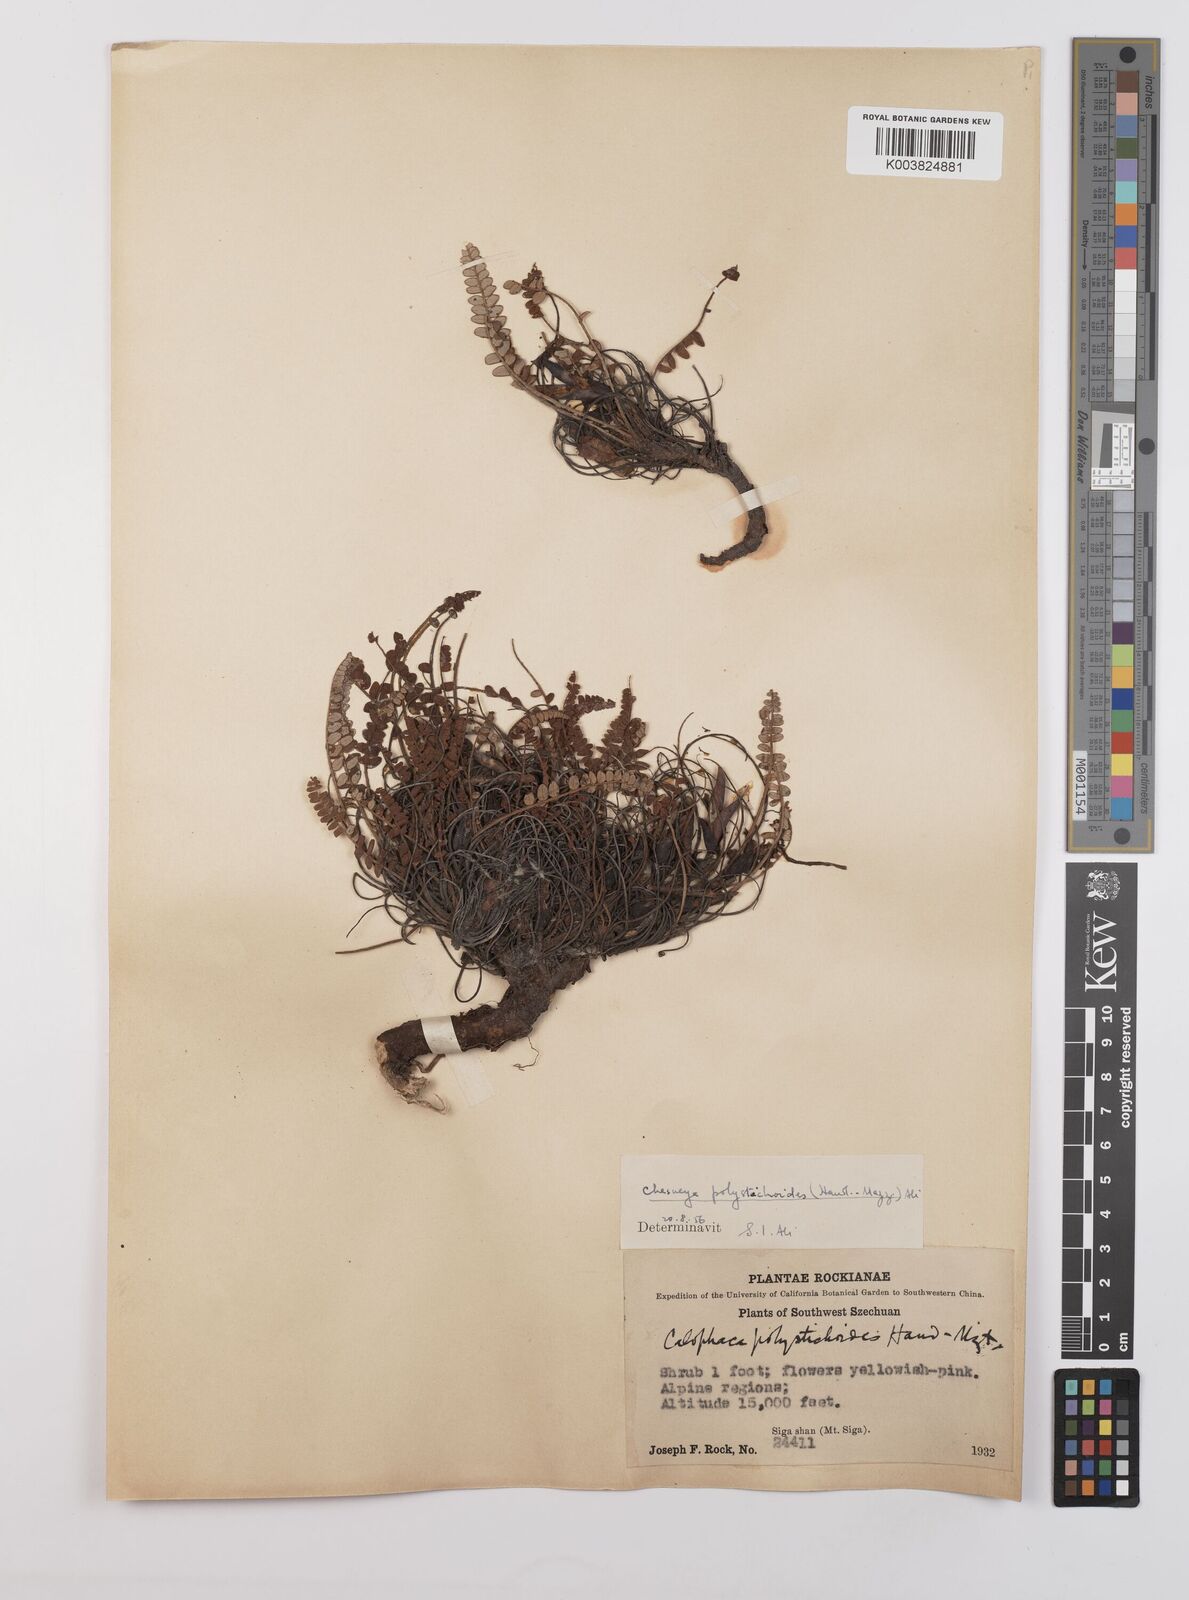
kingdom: Plantae
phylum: Tracheophyta
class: Magnoliopsida
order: Fabales
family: Fabaceae
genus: Chesneya
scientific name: Chesneya polystichoides
